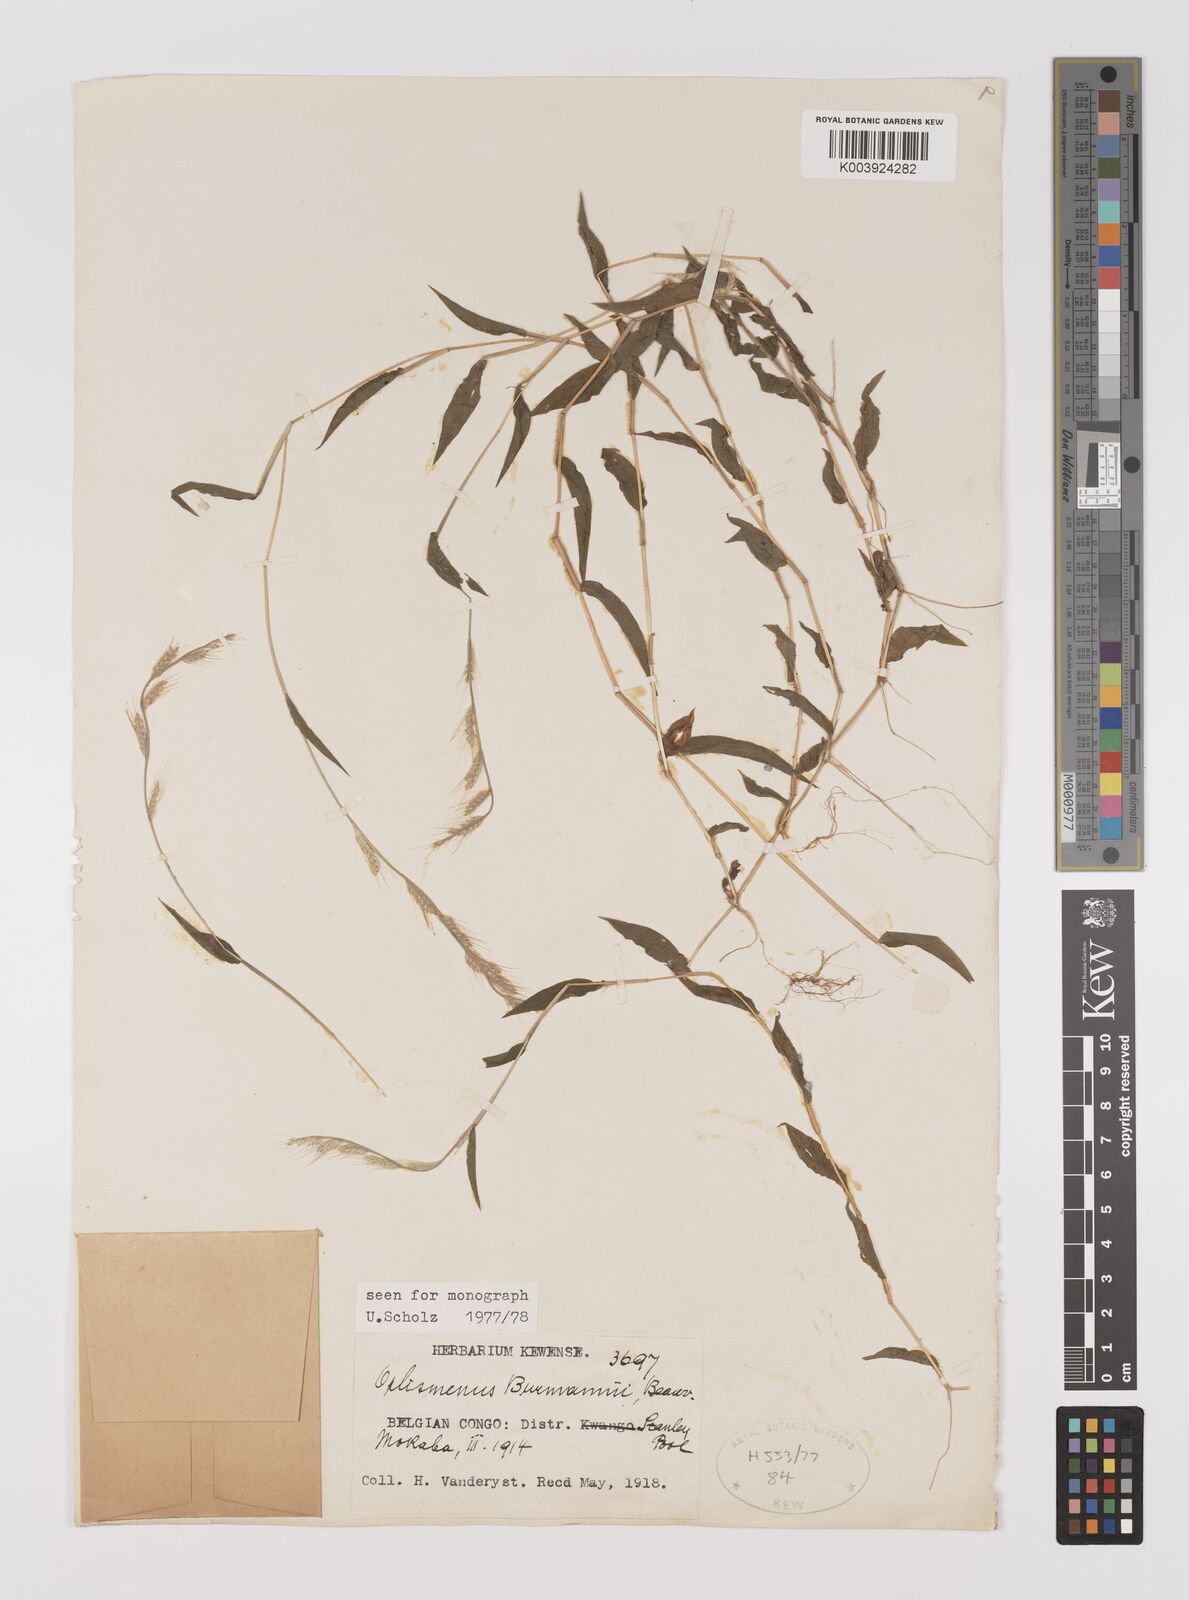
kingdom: Plantae
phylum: Tracheophyta
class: Liliopsida
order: Poales
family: Poaceae
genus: Oplismenus
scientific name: Oplismenus burmanni
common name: Burmann's basketgrass
